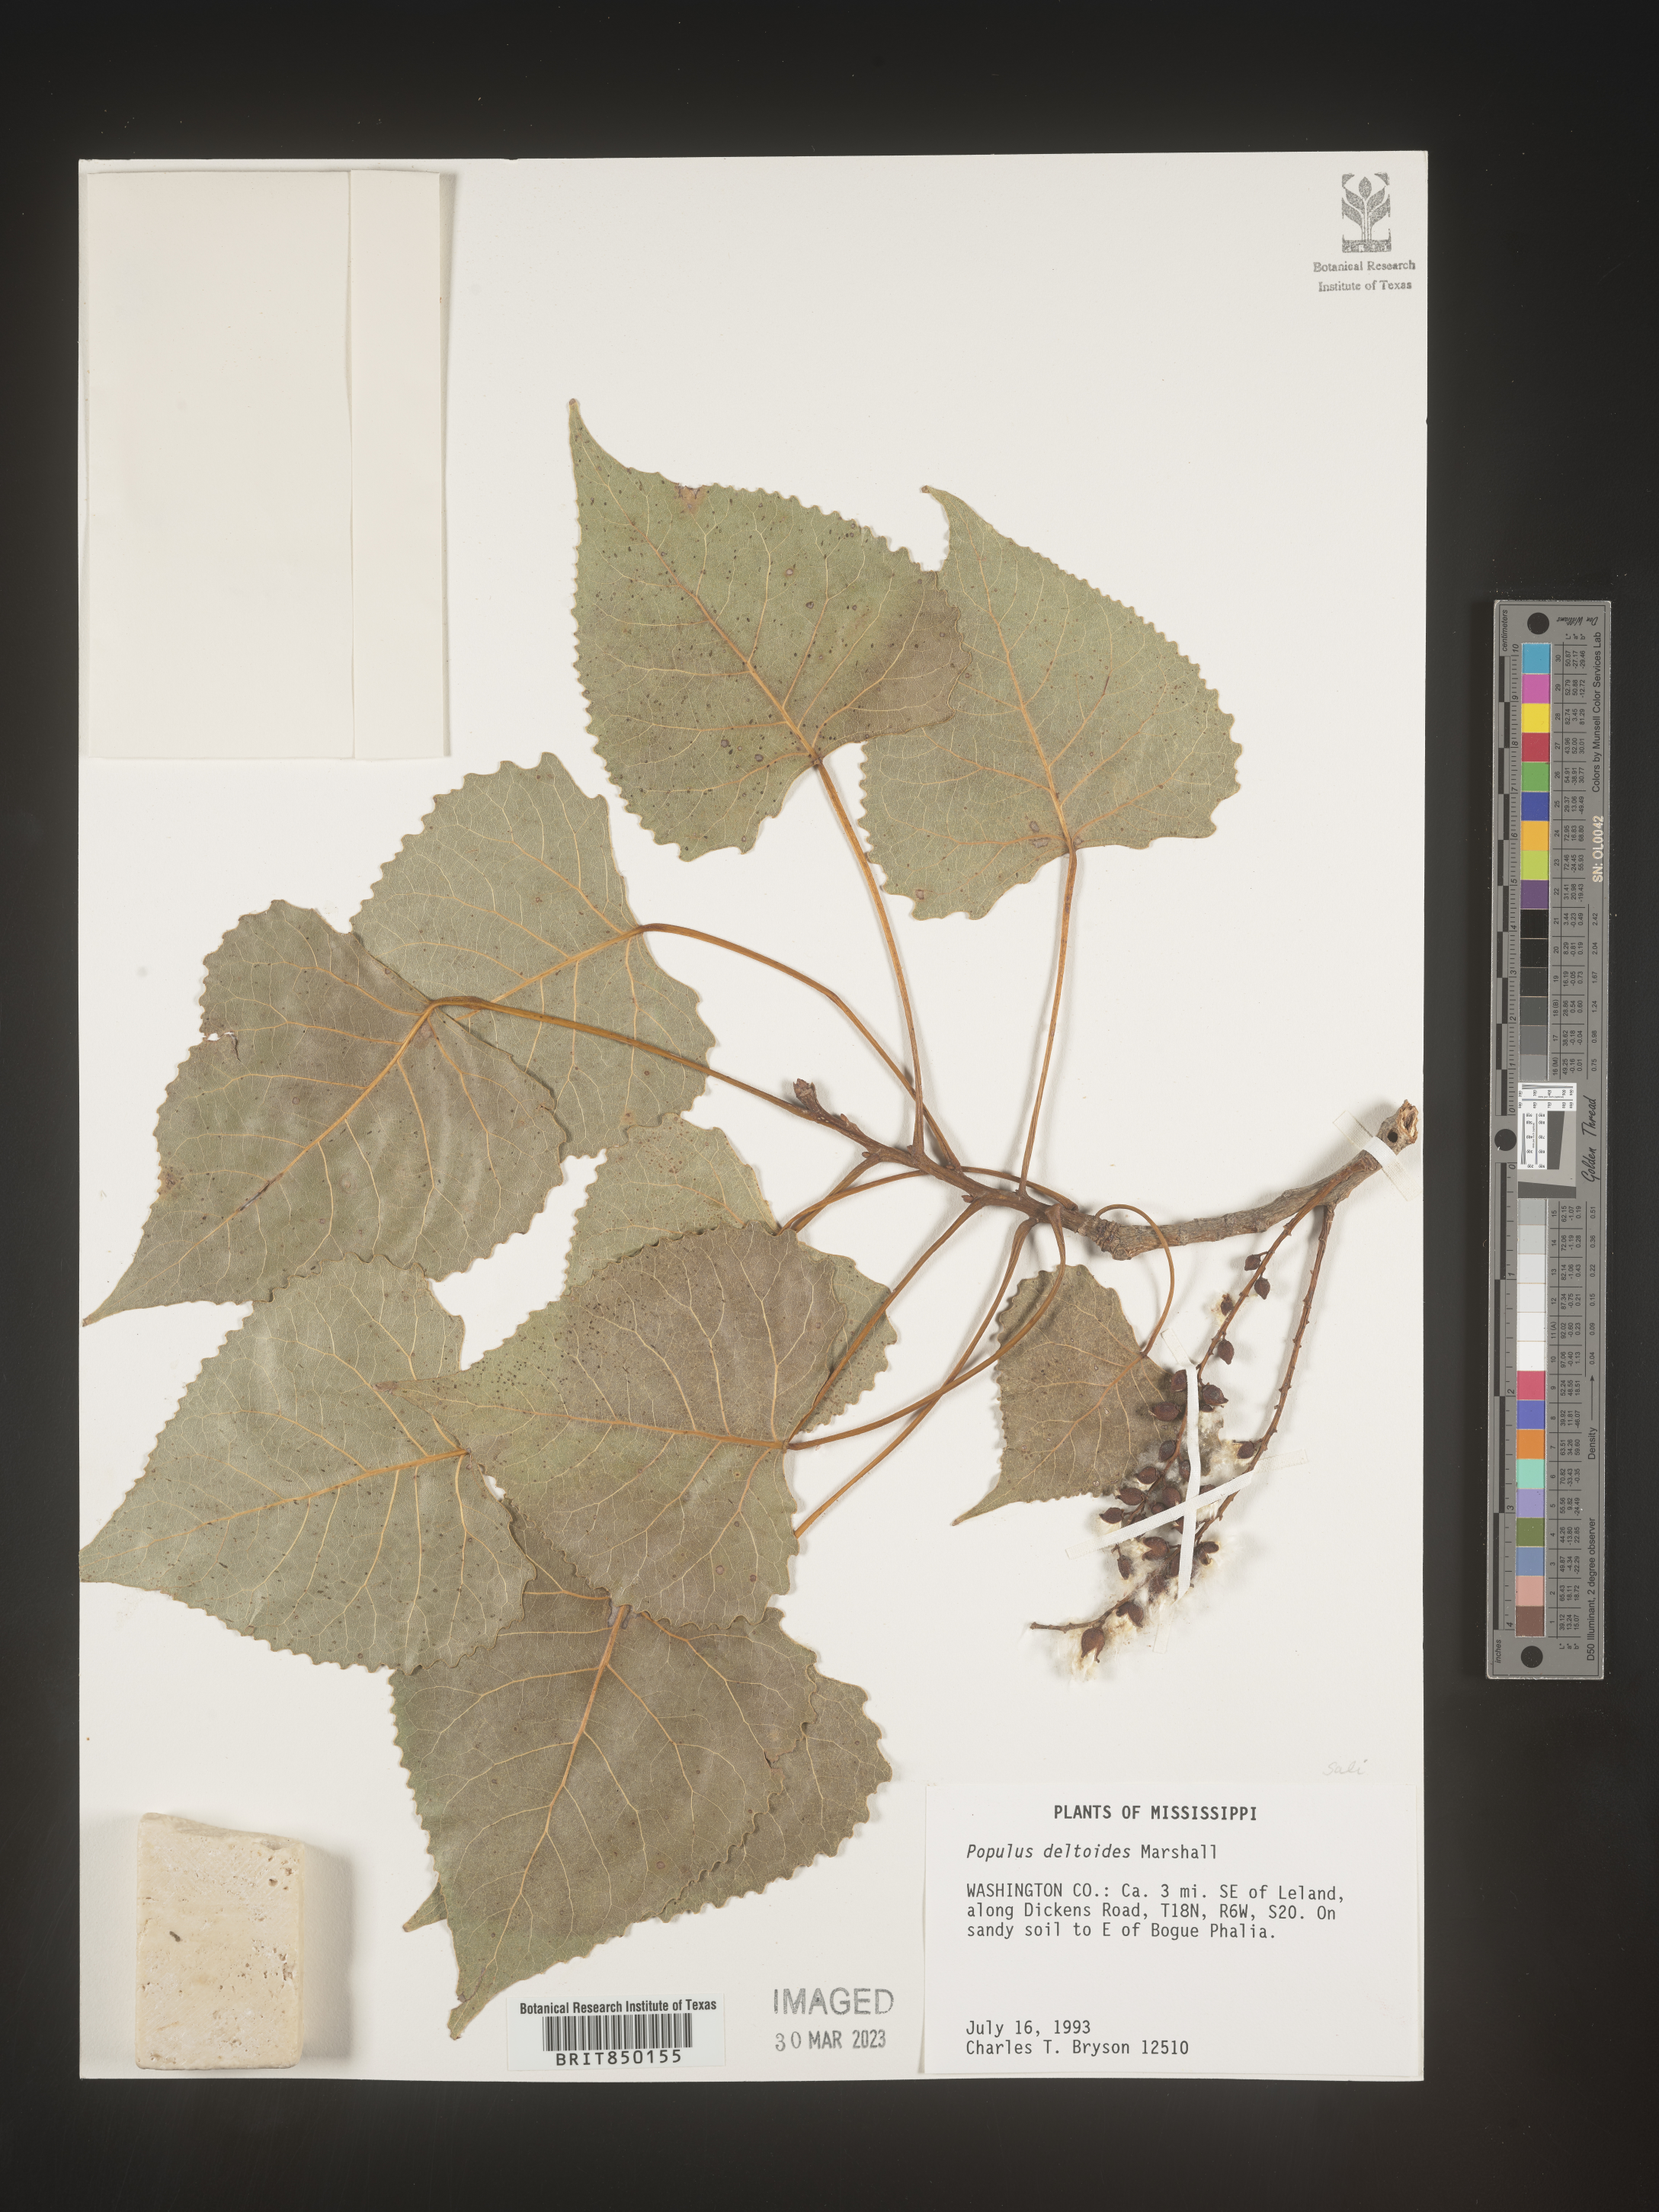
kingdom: Plantae
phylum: Tracheophyta
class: Magnoliopsida
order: Malpighiales
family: Salicaceae
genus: Populus
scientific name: Populus deltoides
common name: Eastern cottonwood
